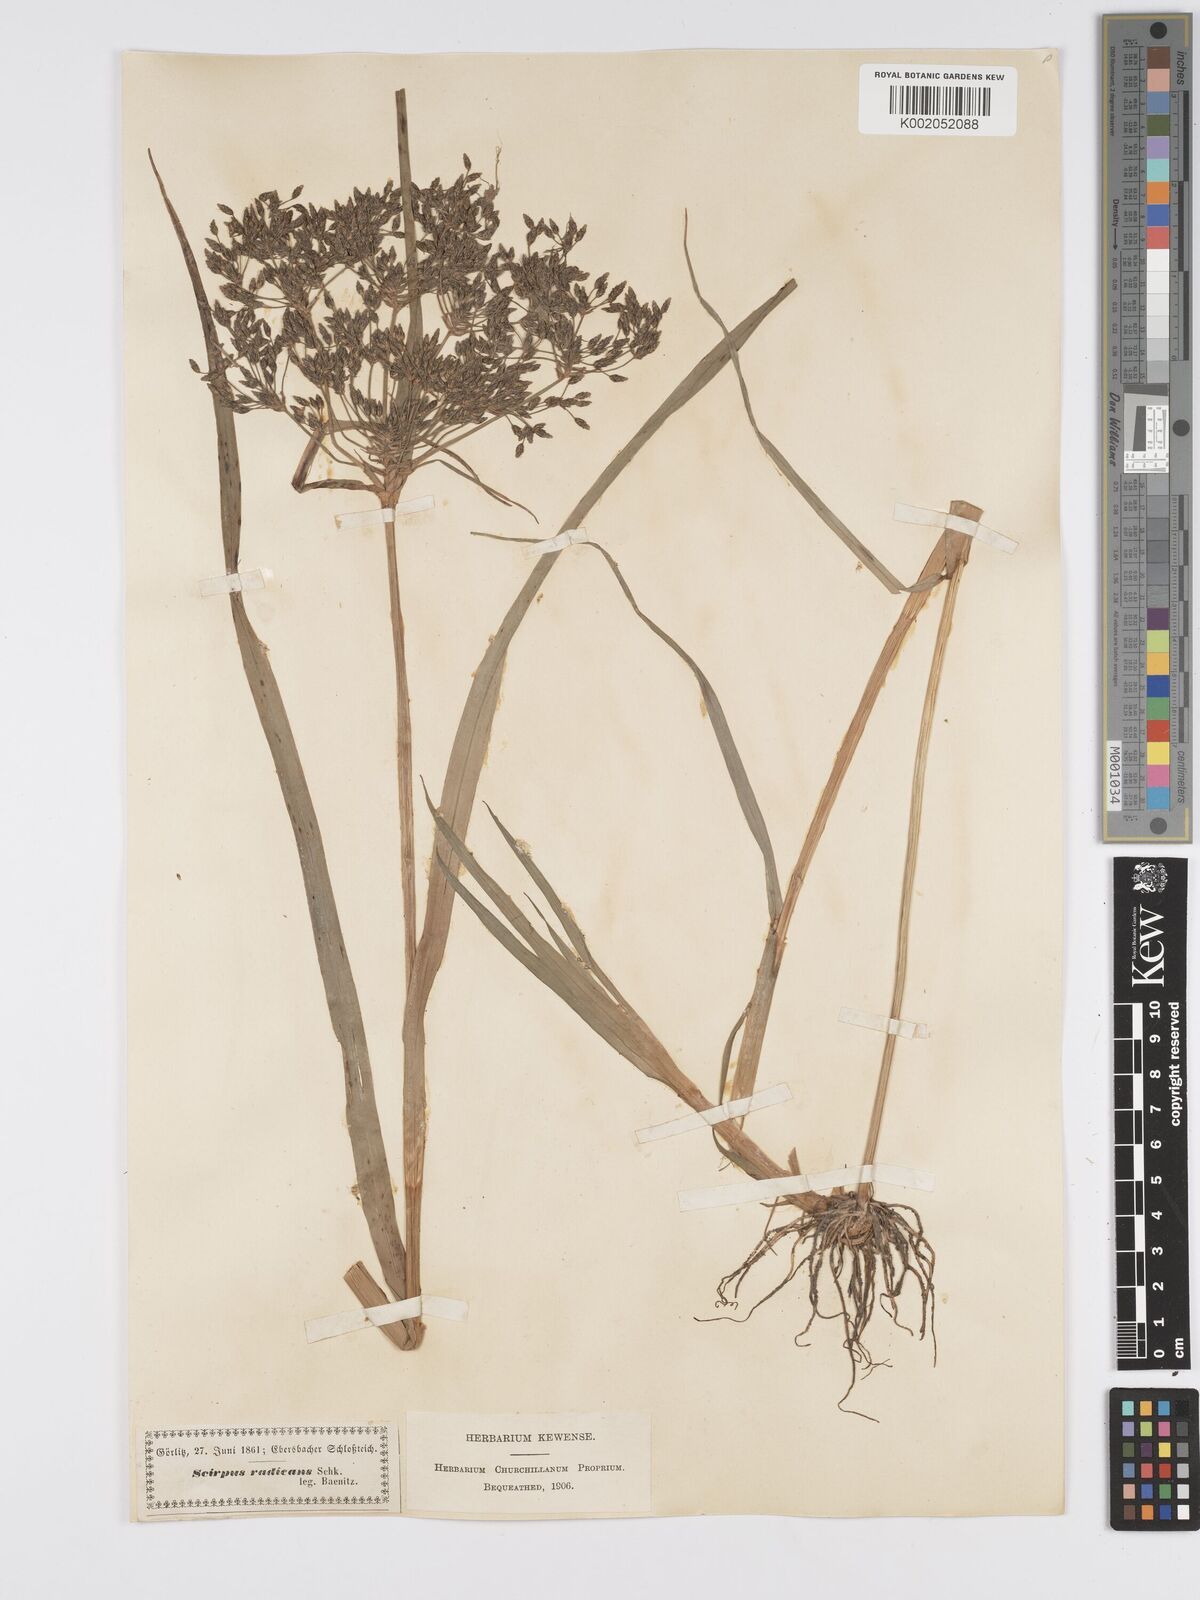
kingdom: Plantae
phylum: Tracheophyta
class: Liliopsida
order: Poales
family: Cyperaceae
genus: Scirpus
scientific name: Scirpus radicans
